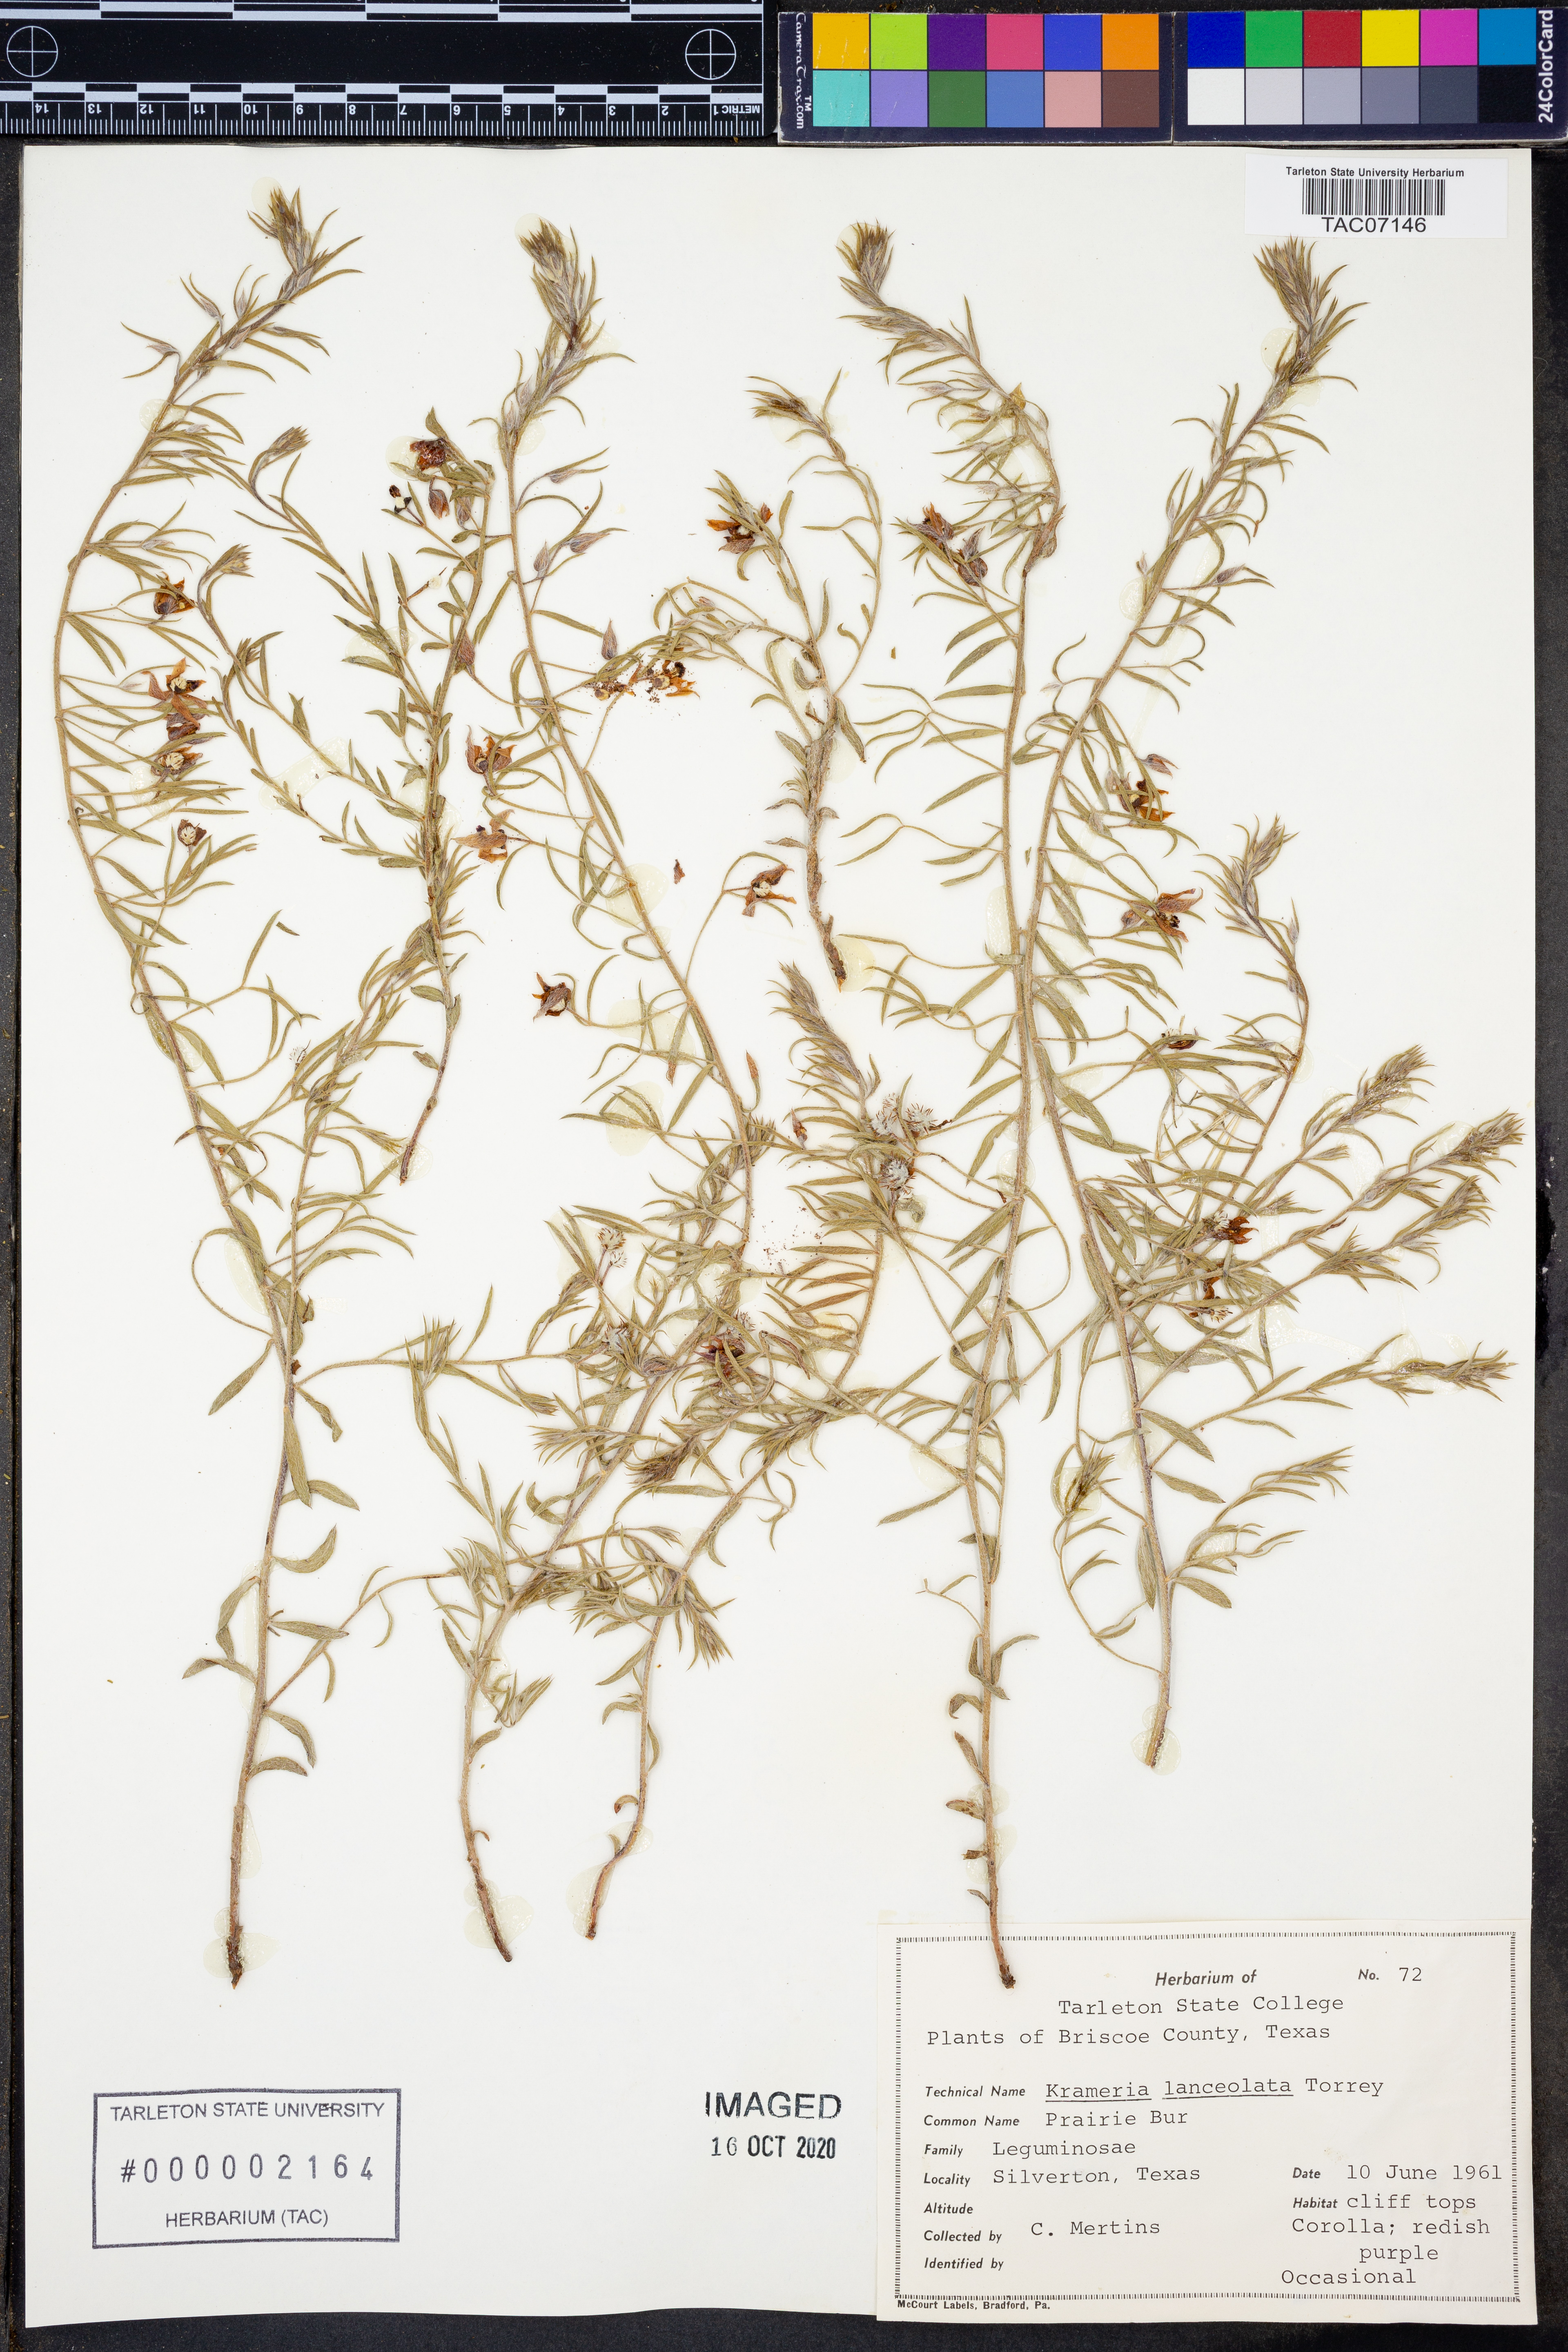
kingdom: Plantae
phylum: Tracheophyta
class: Magnoliopsida
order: Zygophyllales
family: Krameriaceae
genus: Krameria
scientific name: Krameria lanceolata
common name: Ratany
